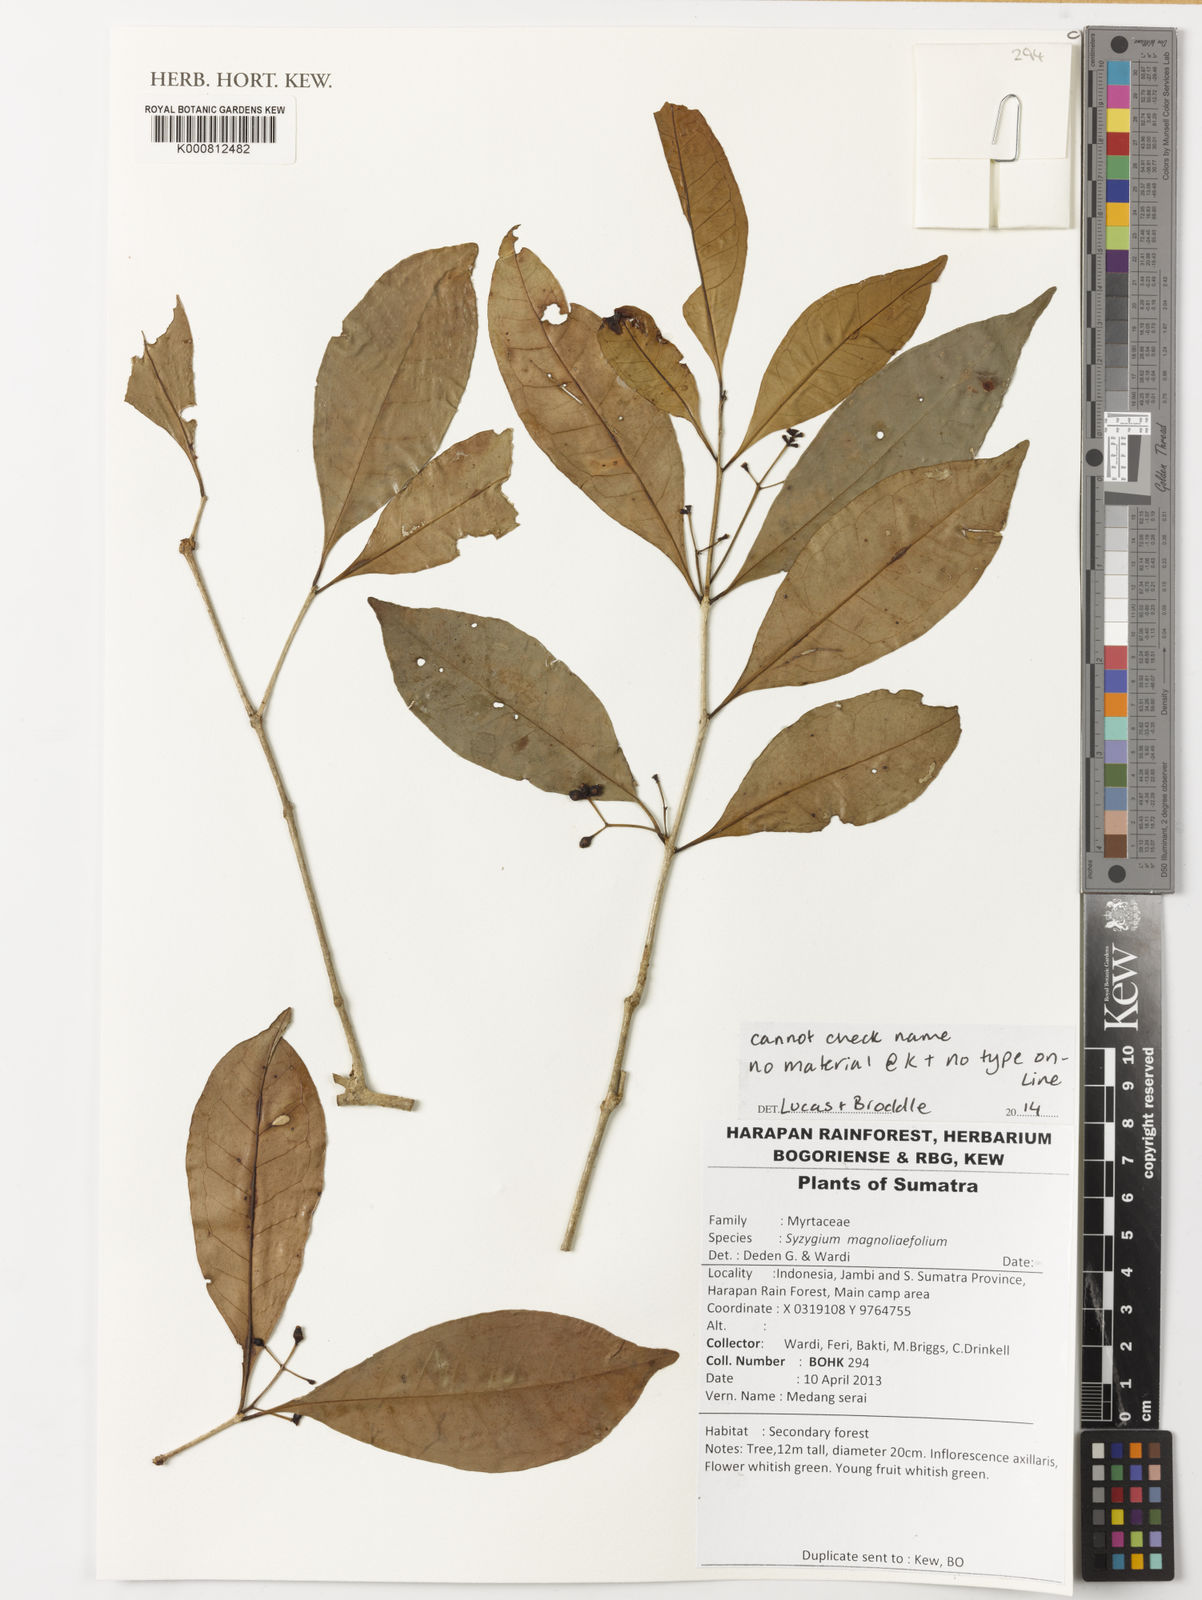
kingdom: Plantae
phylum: Tracheophyta
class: Magnoliopsida
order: Myrtales
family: Myrtaceae
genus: Syzygium
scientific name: Syzygium magnoliifolium
